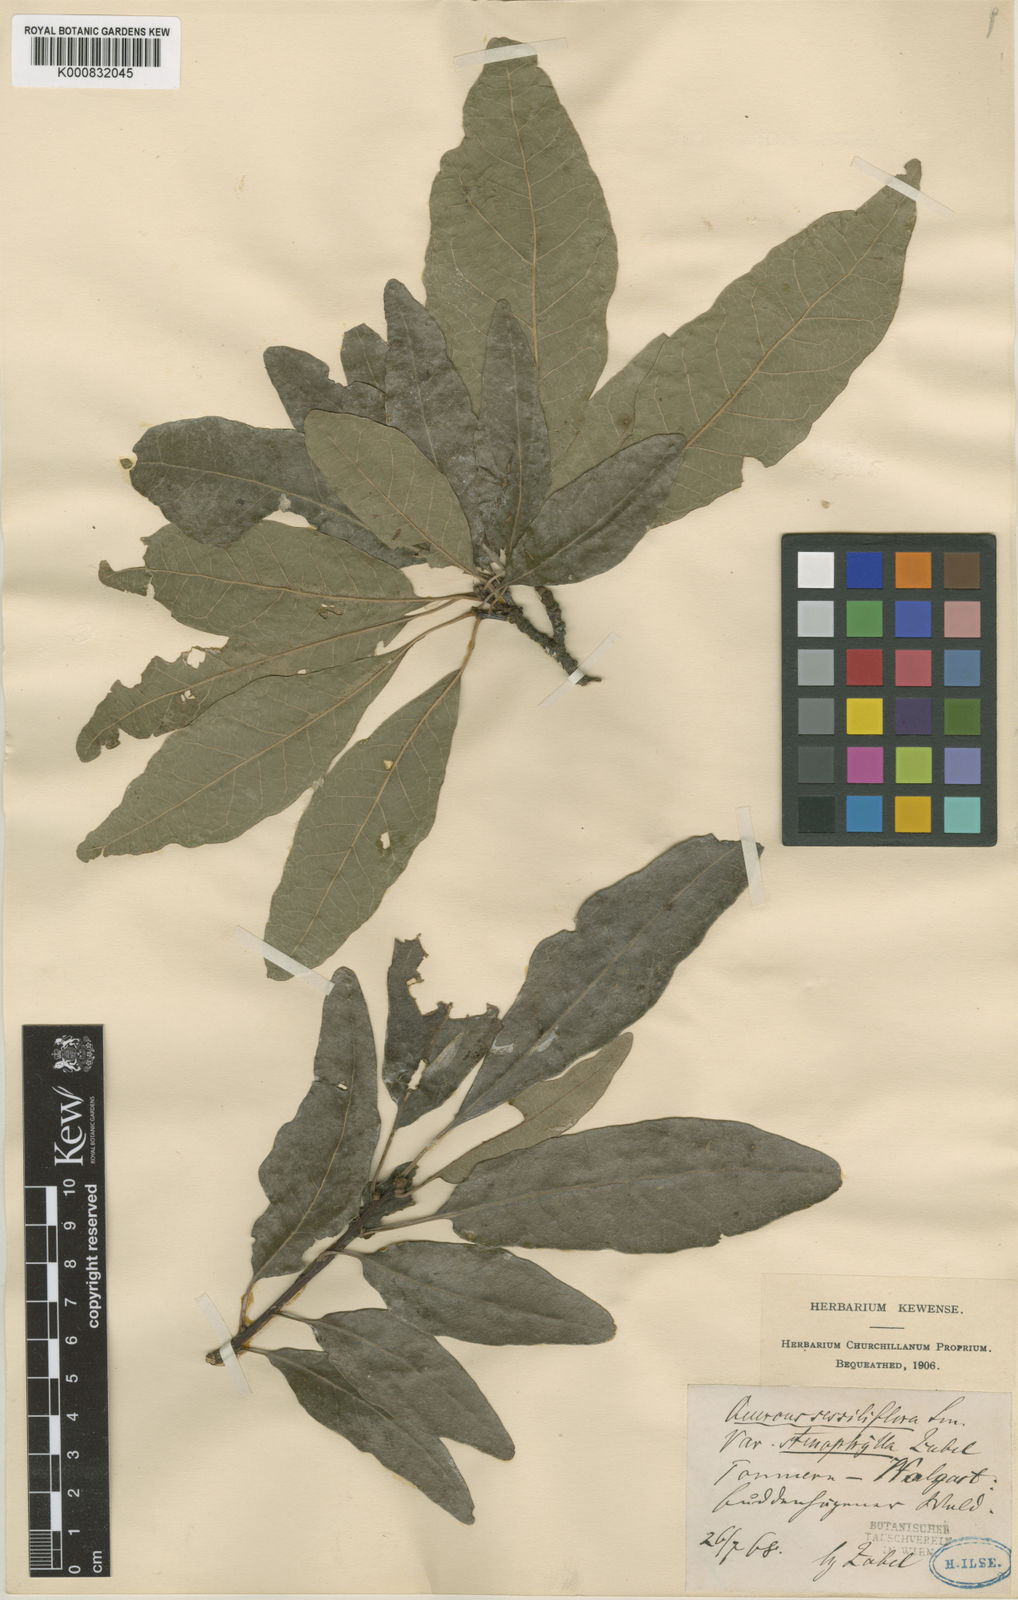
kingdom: Plantae
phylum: Tracheophyta
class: Magnoliopsida
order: Fagales
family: Fagaceae
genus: Quercus
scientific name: Quercus petraea
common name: Sessile oak
